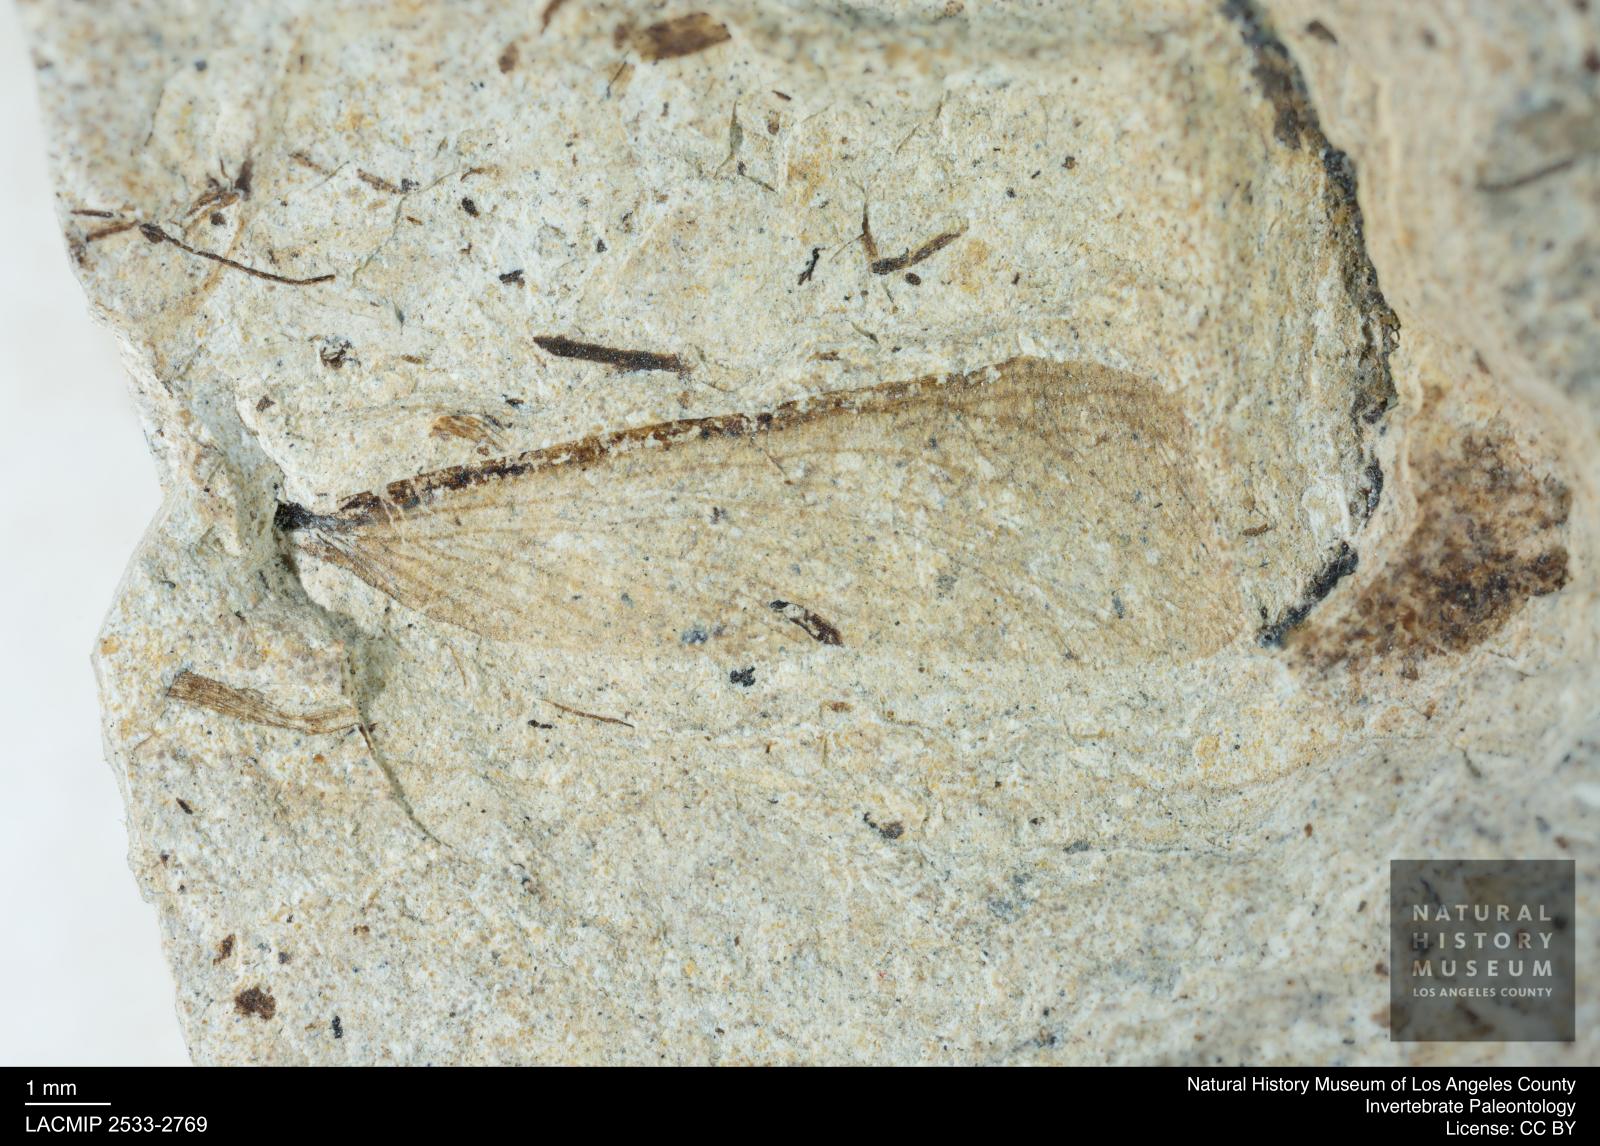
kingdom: Animalia
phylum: Arthropoda
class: Insecta
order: Blattodea
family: Hodotermitidae
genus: Ulmeriella
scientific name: Ulmeriella bauckhorni
